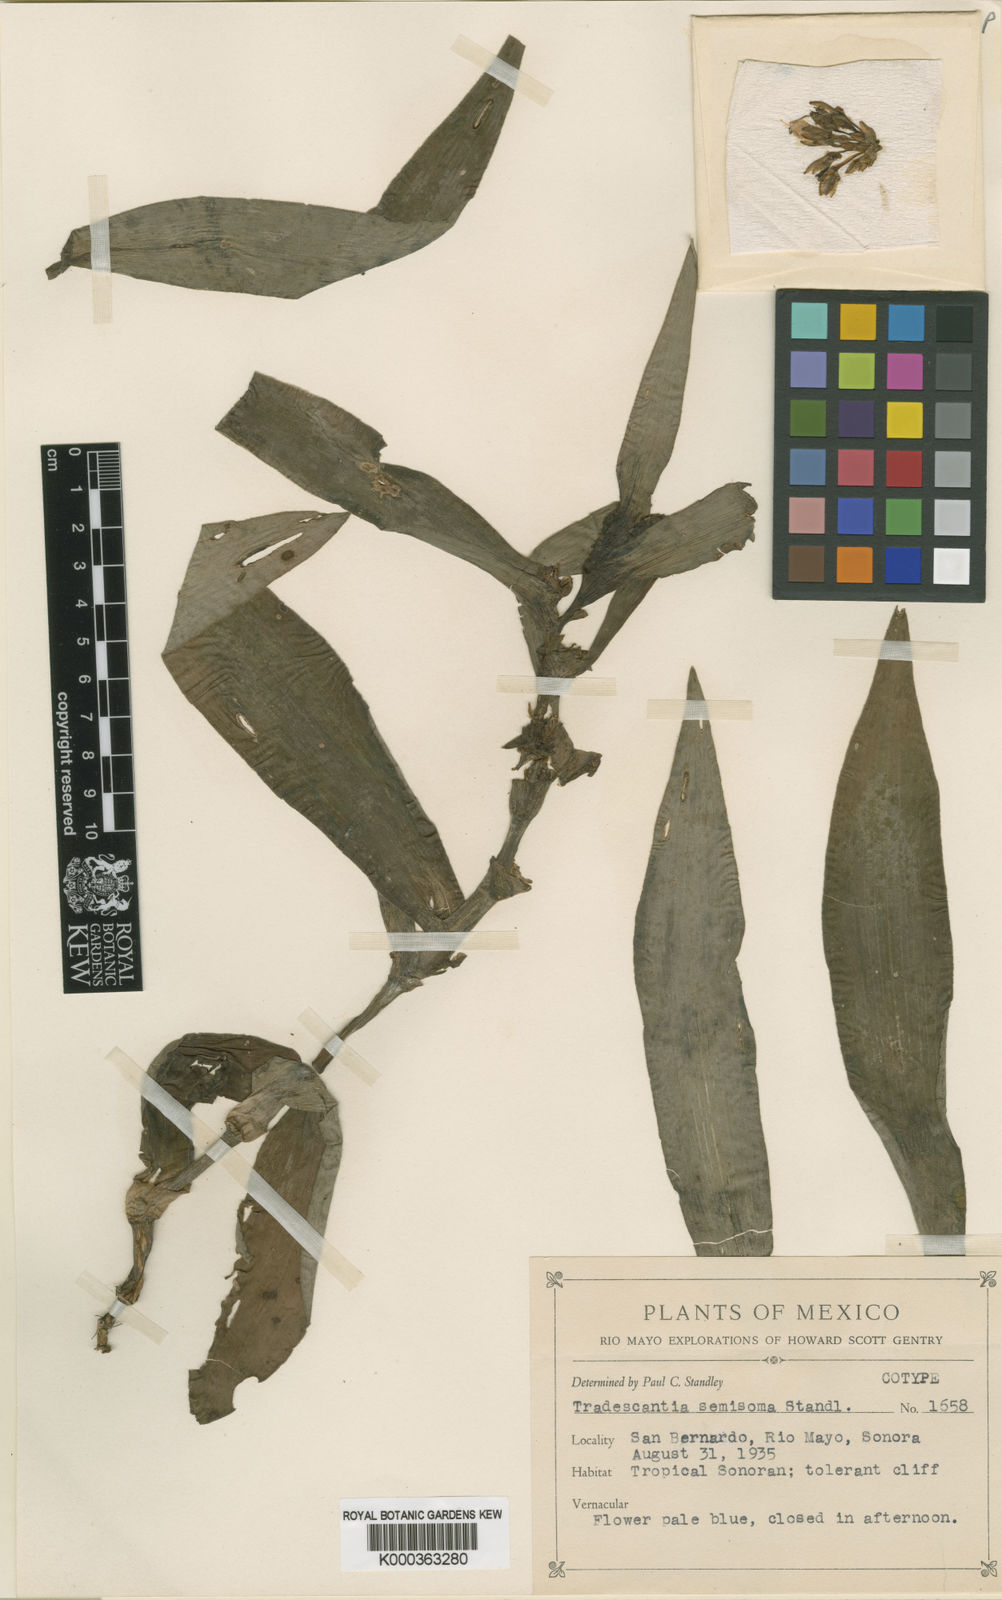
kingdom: Plantae
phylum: Tracheophyta
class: Liliopsida
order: Commelinales
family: Commelinaceae
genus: Tradescantia
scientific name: Tradescantia andrieuxii
